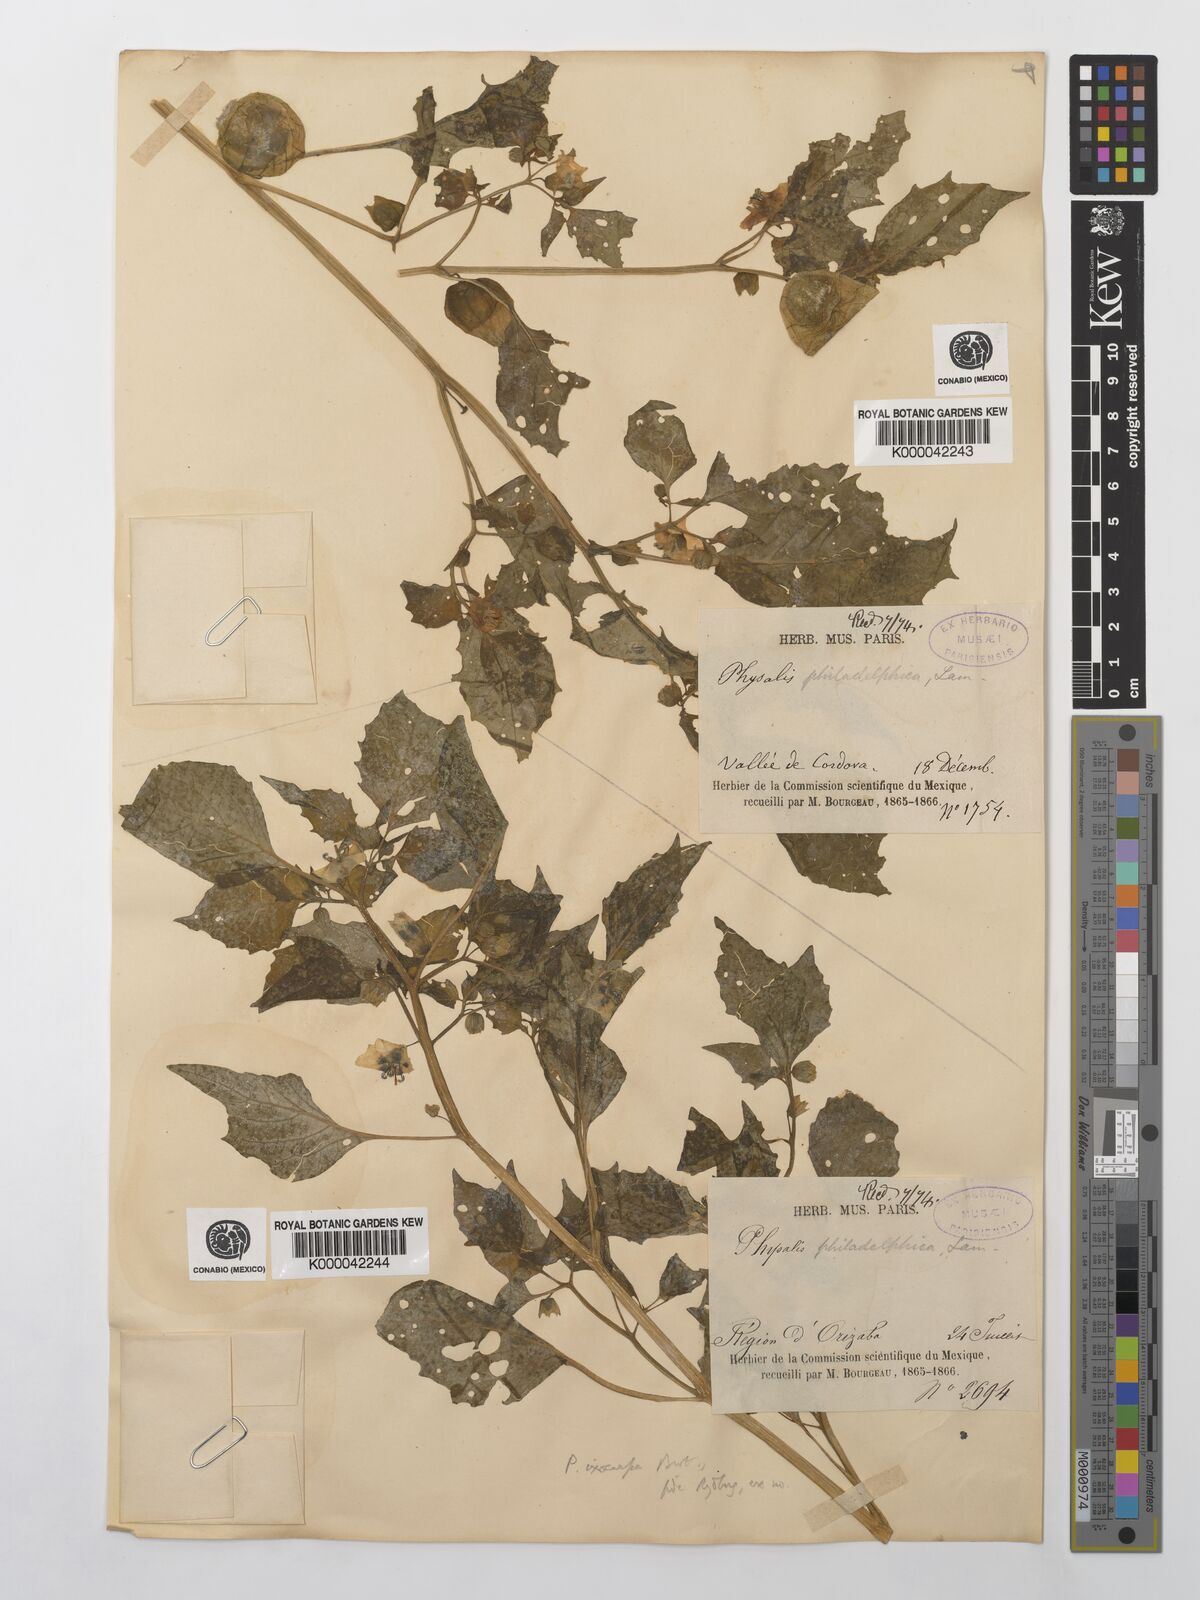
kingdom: Plantae
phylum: Tracheophyta
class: Magnoliopsida
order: Solanales
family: Solanaceae
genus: Physalis
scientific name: Physalis philadelphica
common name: Husk-tomato
